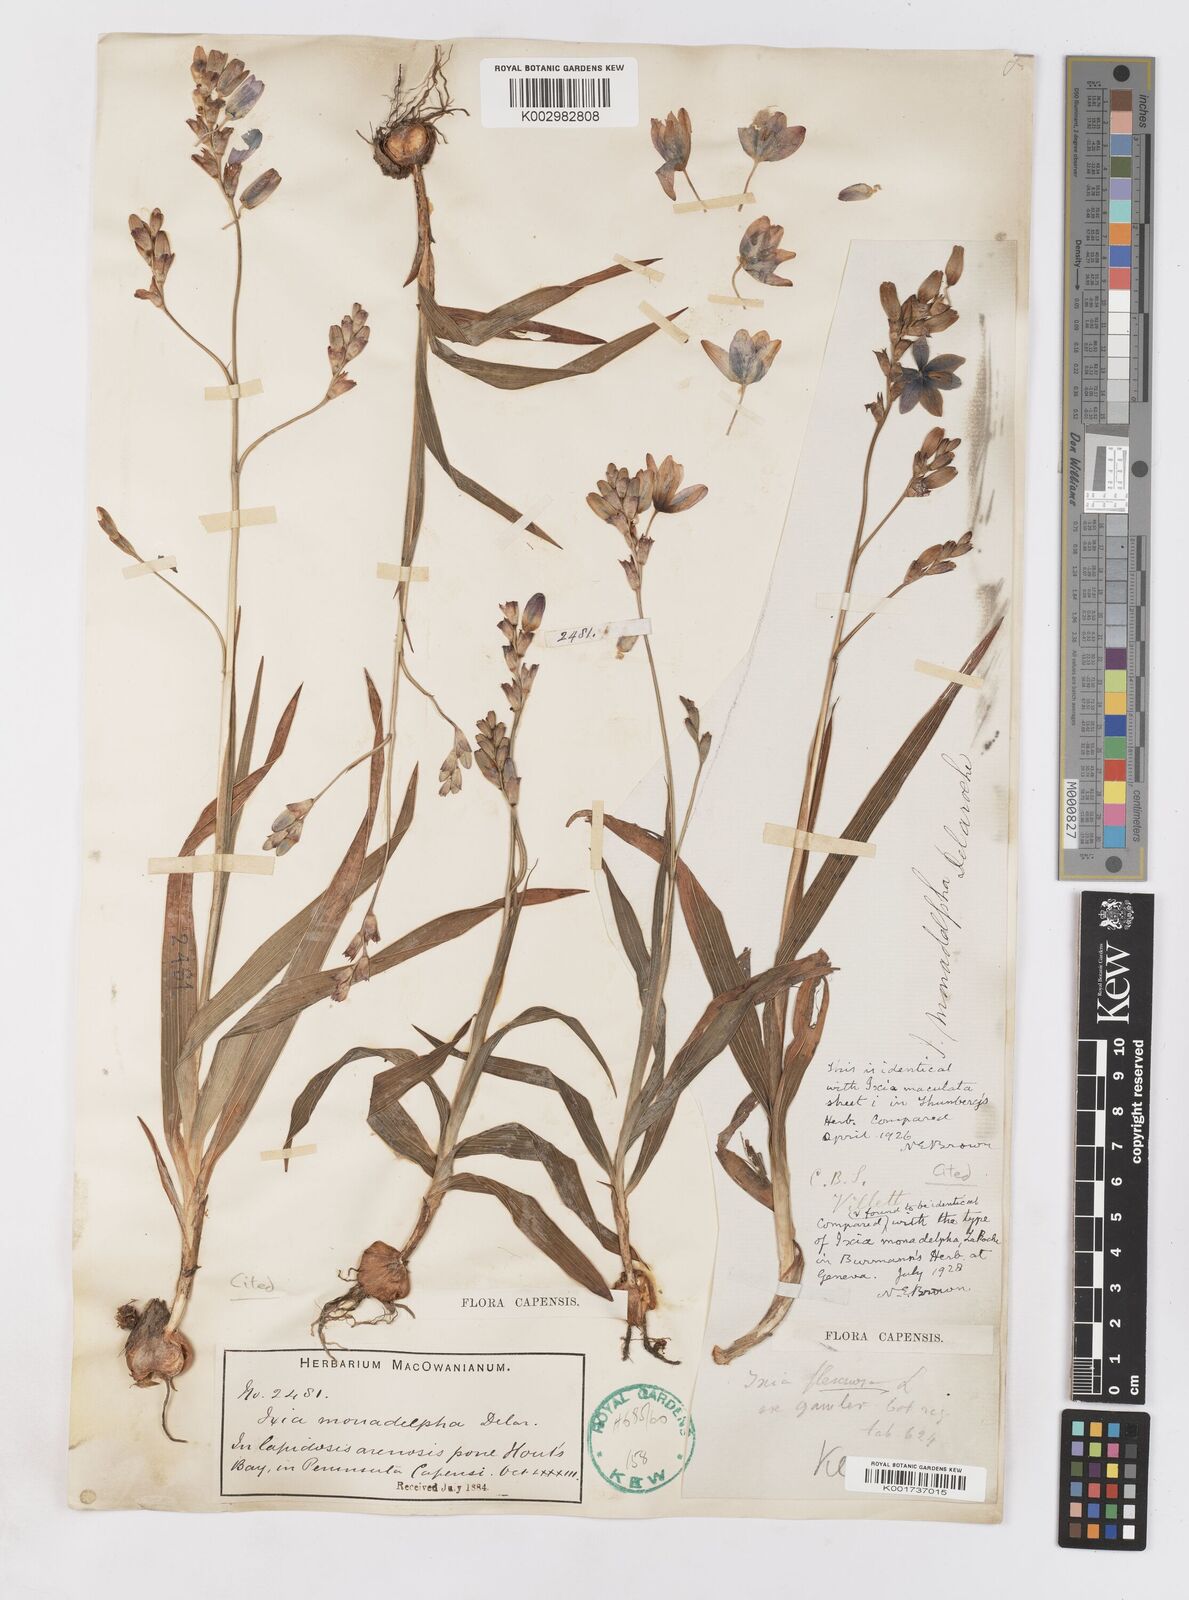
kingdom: Plantae
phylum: Tracheophyta
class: Liliopsida
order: Asparagales
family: Iridaceae
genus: Ixia
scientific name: Ixia monadelpha
